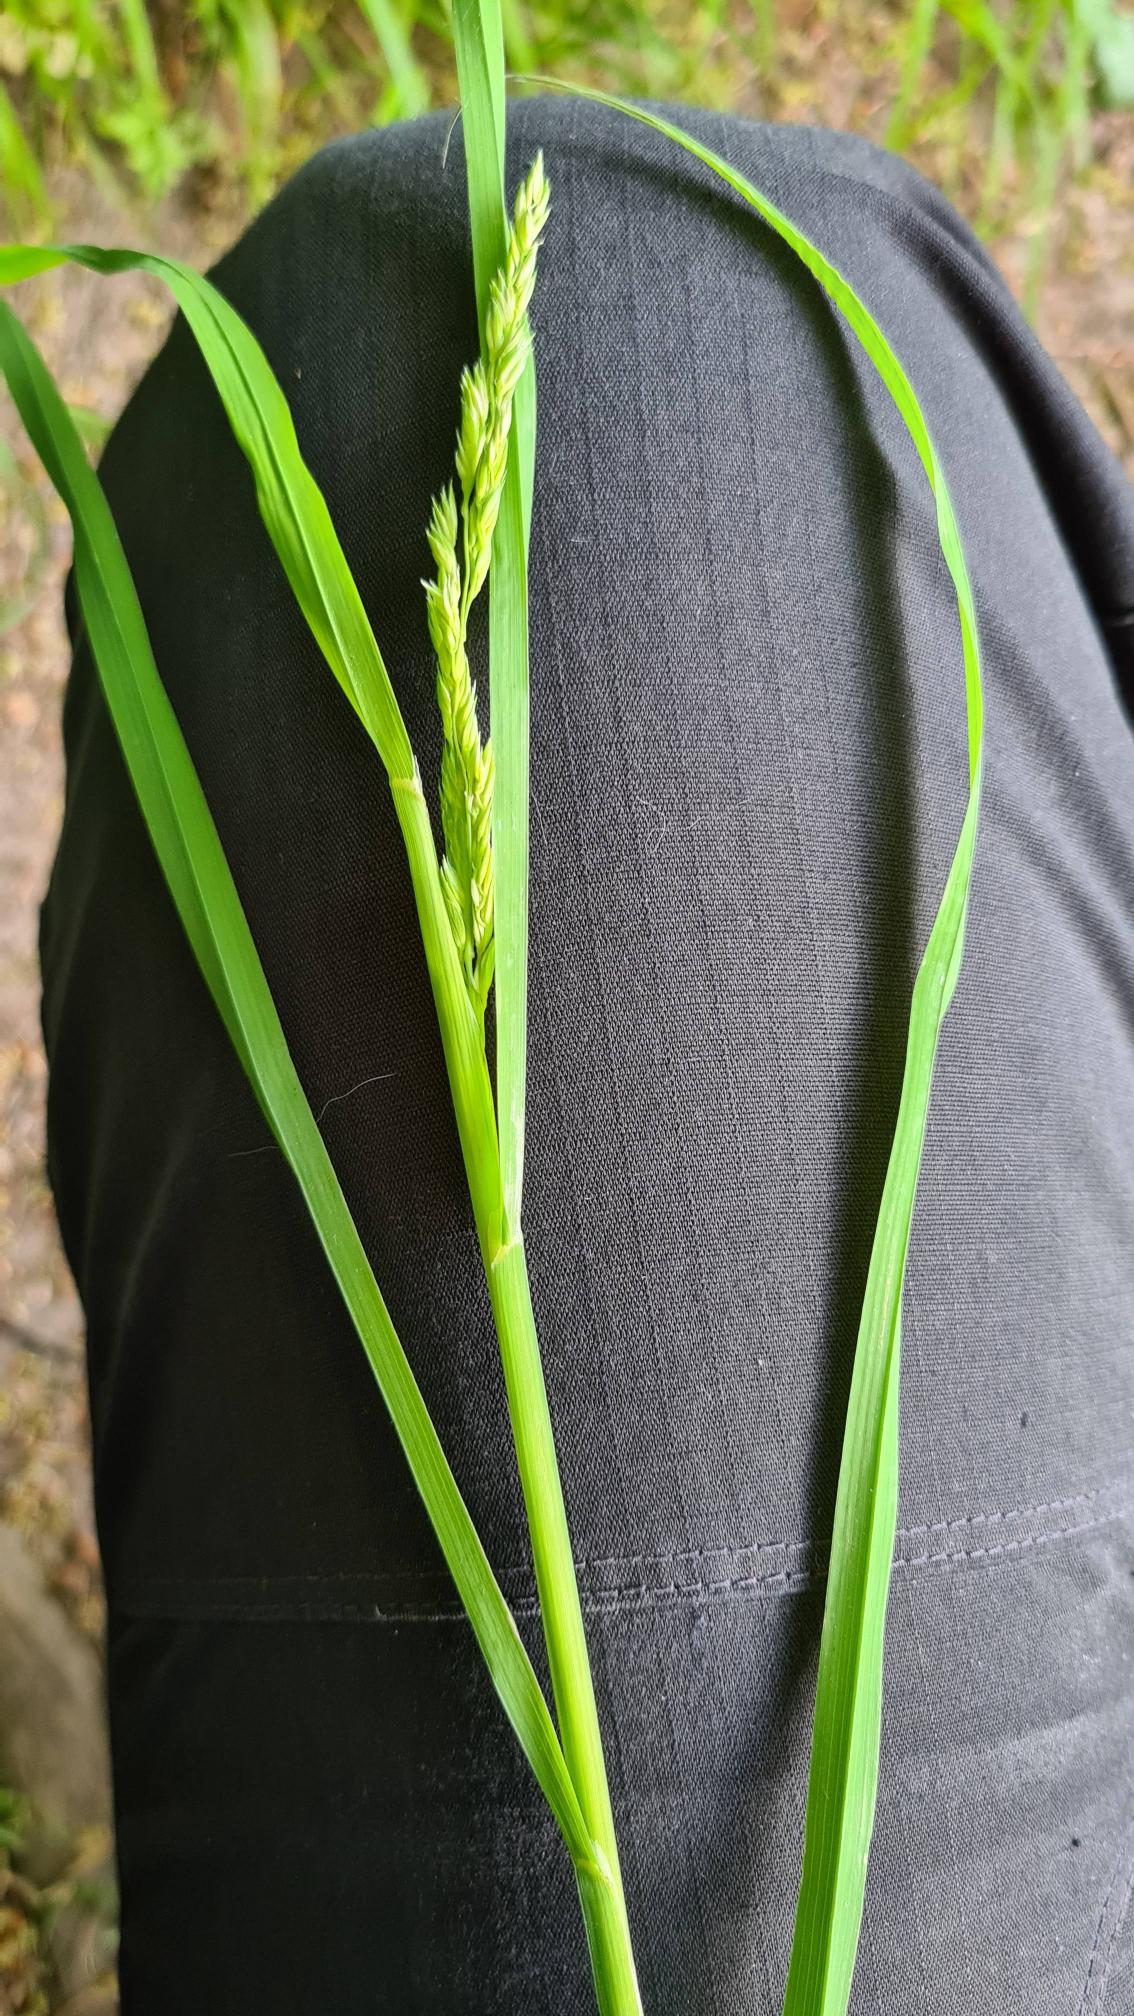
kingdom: Plantae
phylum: Tracheophyta
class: Liliopsida
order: Poales
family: Poaceae
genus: Dactylis
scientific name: Dactylis glomerata
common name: Skov-hundegræs
